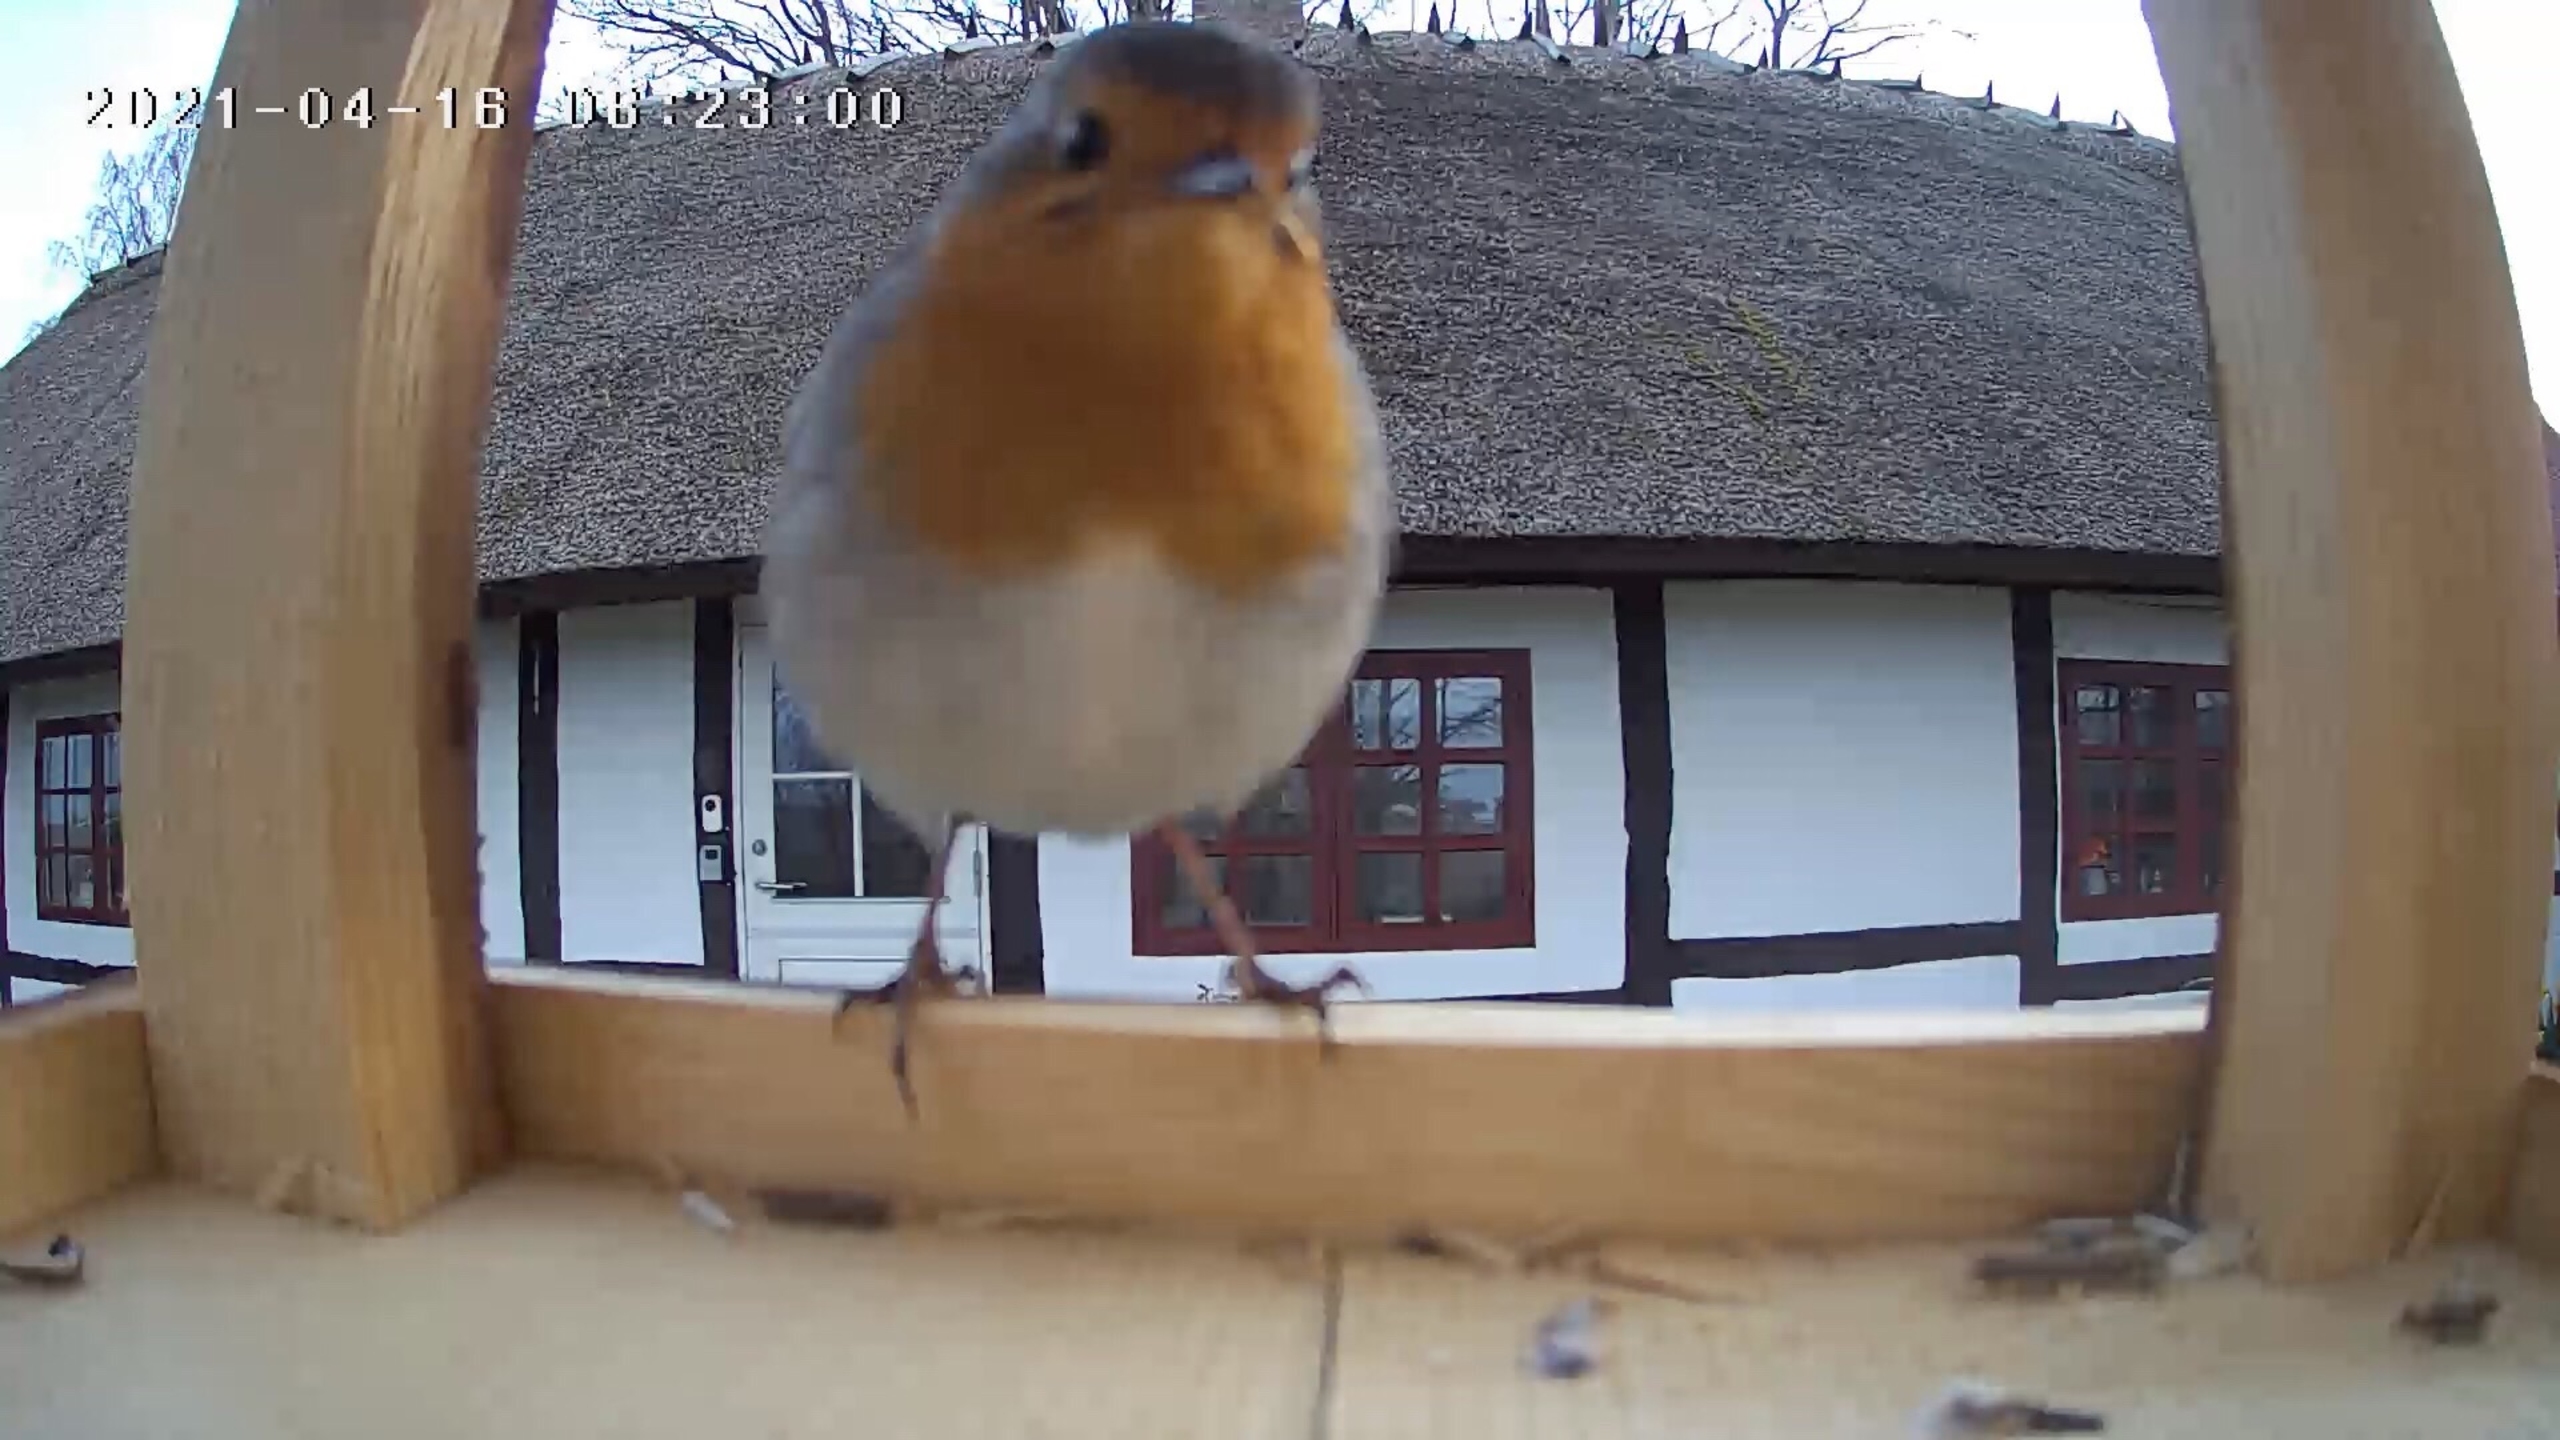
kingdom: Animalia
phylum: Chordata
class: Aves
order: Passeriformes
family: Muscicapidae
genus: Erithacus
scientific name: Erithacus rubecula
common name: Rødhals/rødkælk
